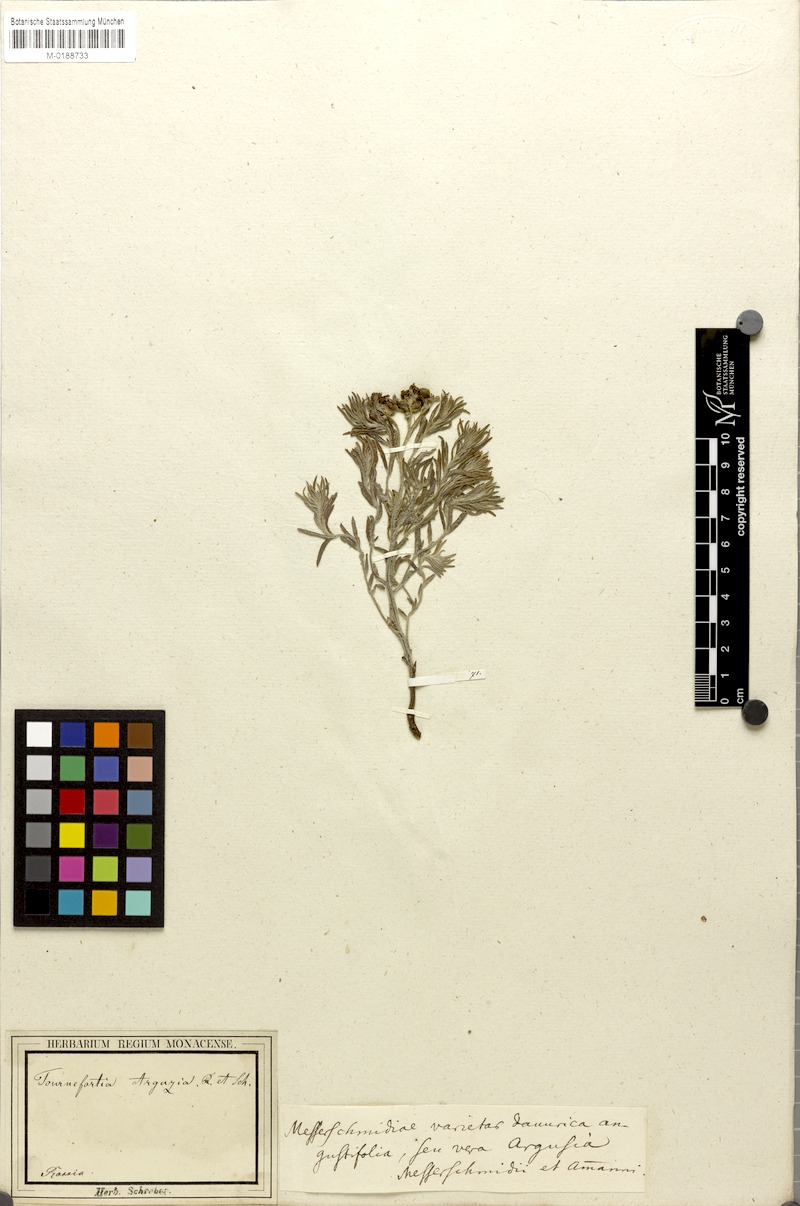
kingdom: Plantae
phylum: Tracheophyta
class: Magnoliopsida
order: Boraginales
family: Heliotropiaceae
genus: Tournefortia
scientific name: Tournefortia sibirica
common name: Siberian sea rosemary
